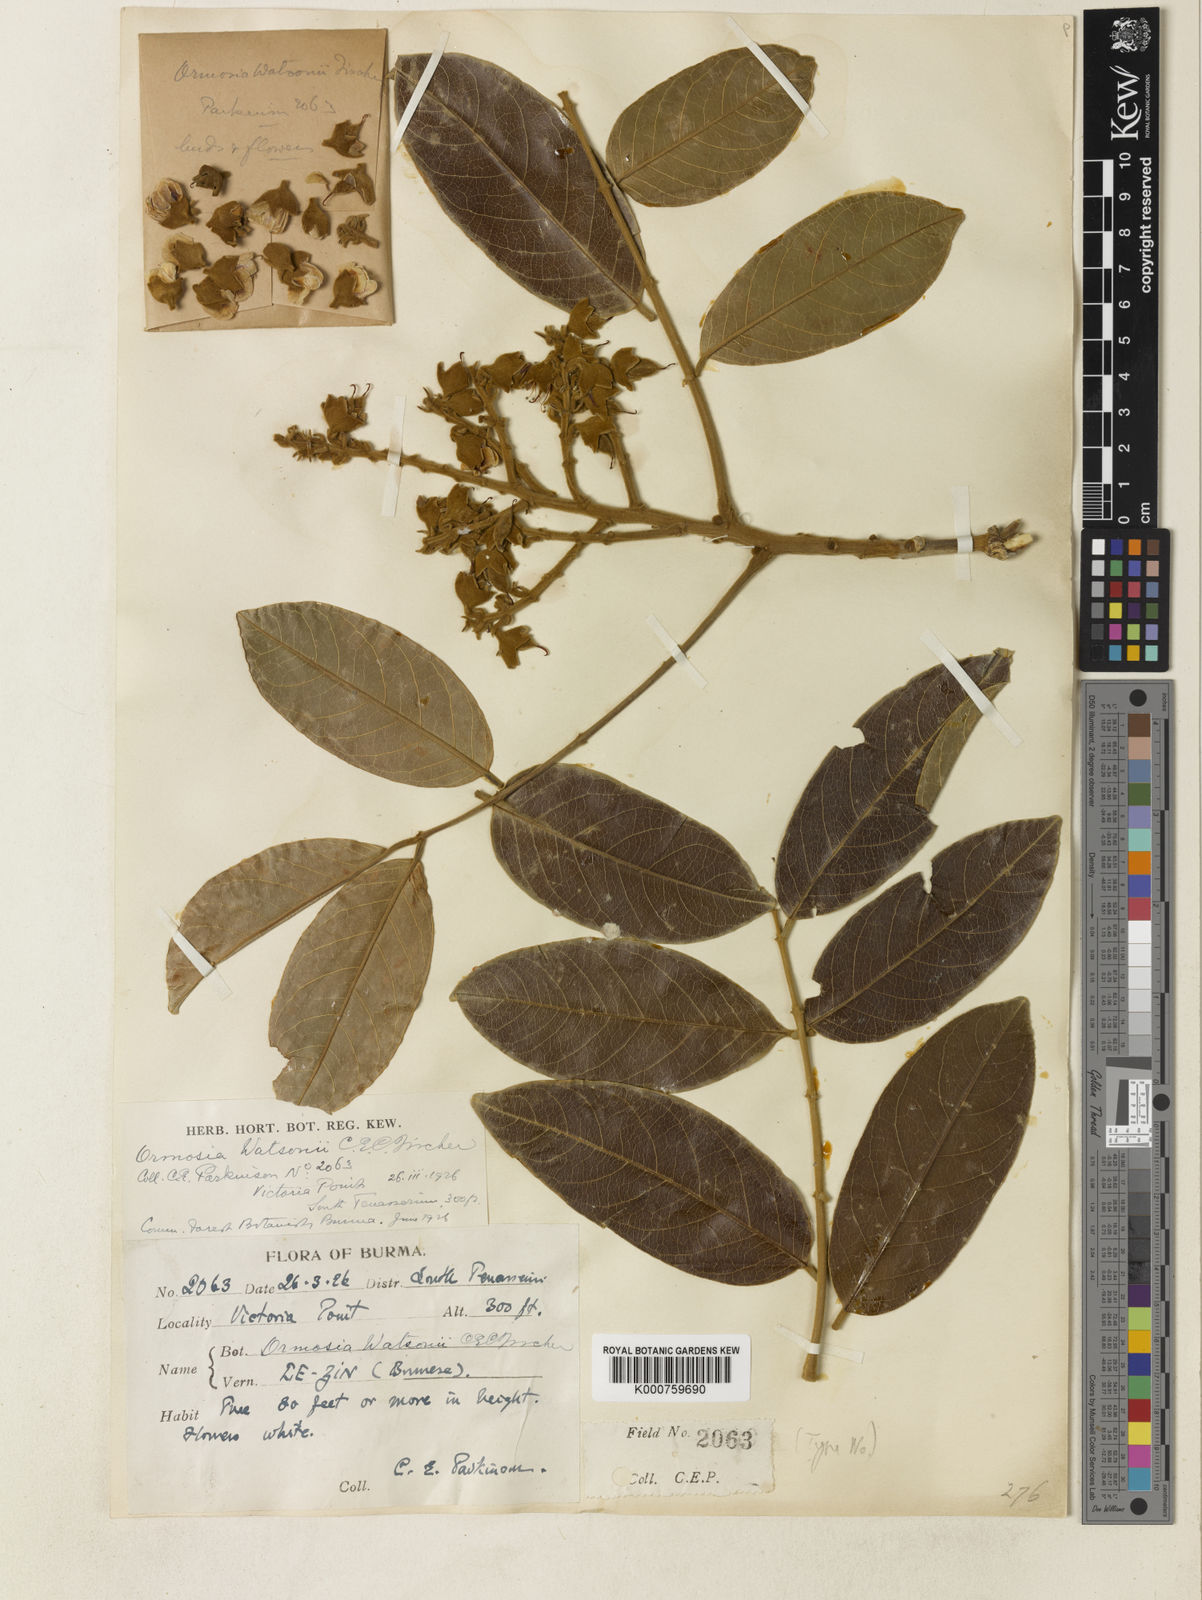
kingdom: Plantae
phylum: Tracheophyta
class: Magnoliopsida
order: Fabales
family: Fabaceae
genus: Ormosia
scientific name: Ormosia watsonii
